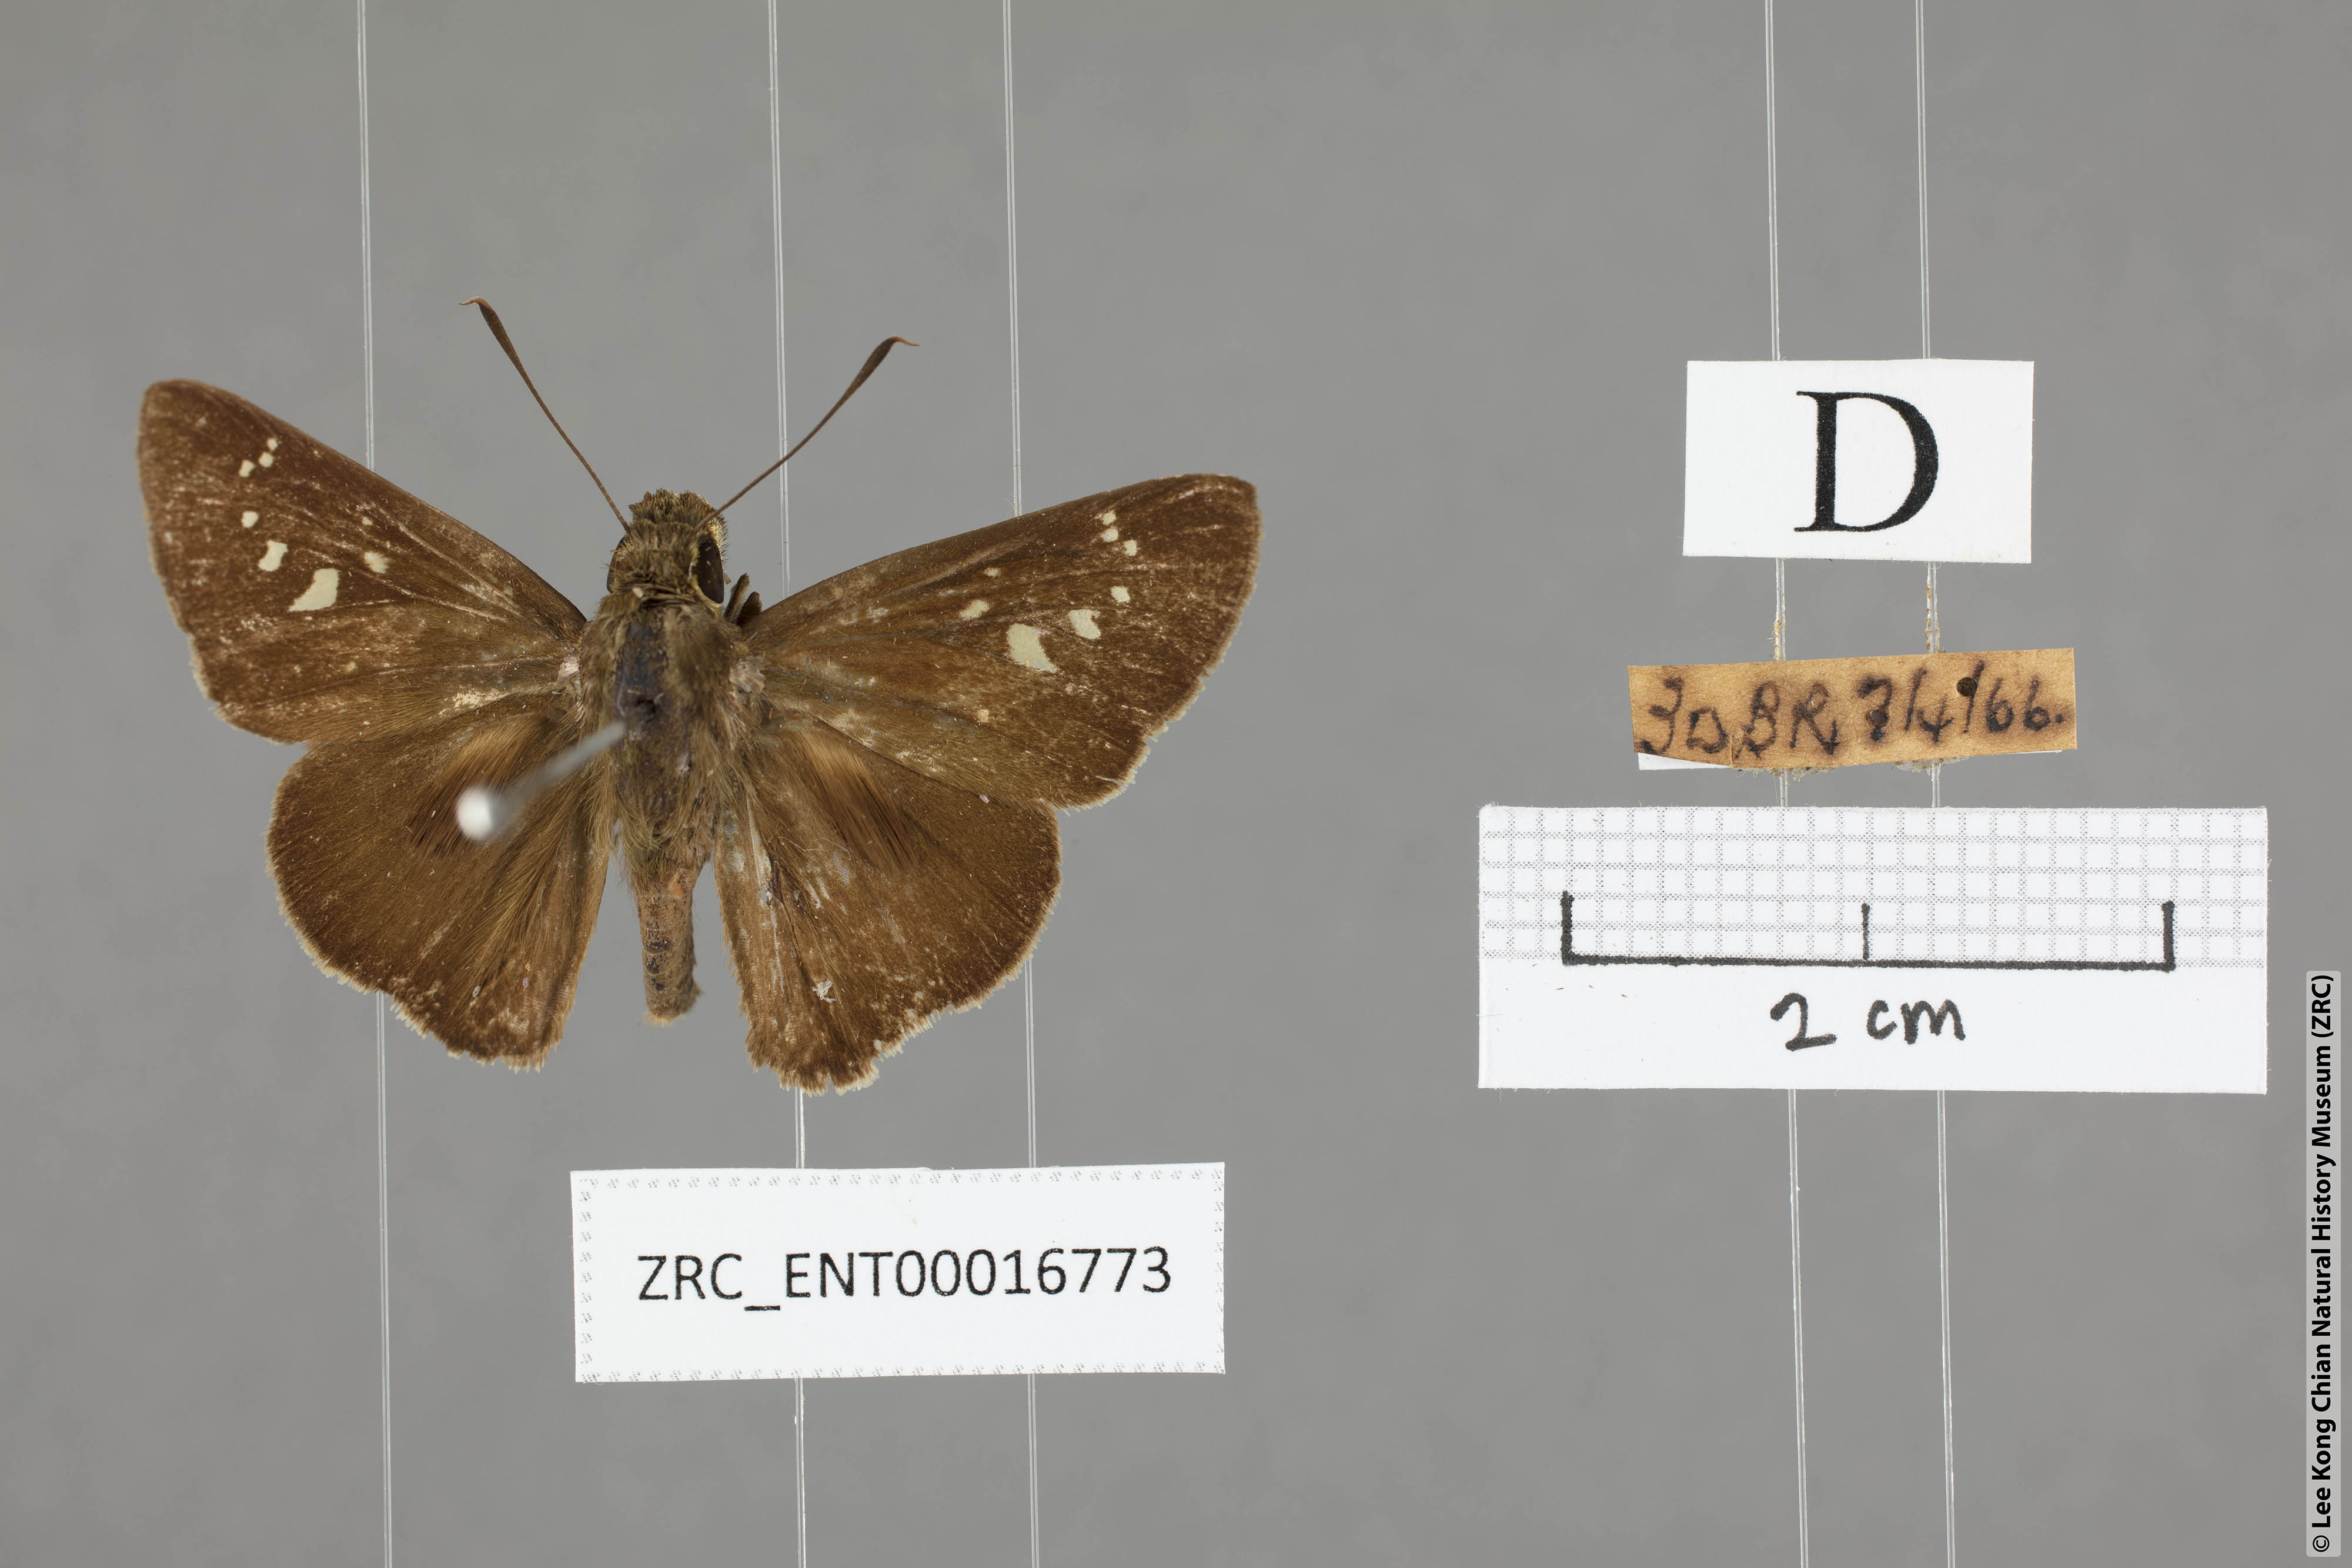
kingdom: Animalia
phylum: Arthropoda
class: Insecta
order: Lepidoptera
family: Hesperiidae
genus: Baoris
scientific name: Baoris farri
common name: Paintbrush swift
